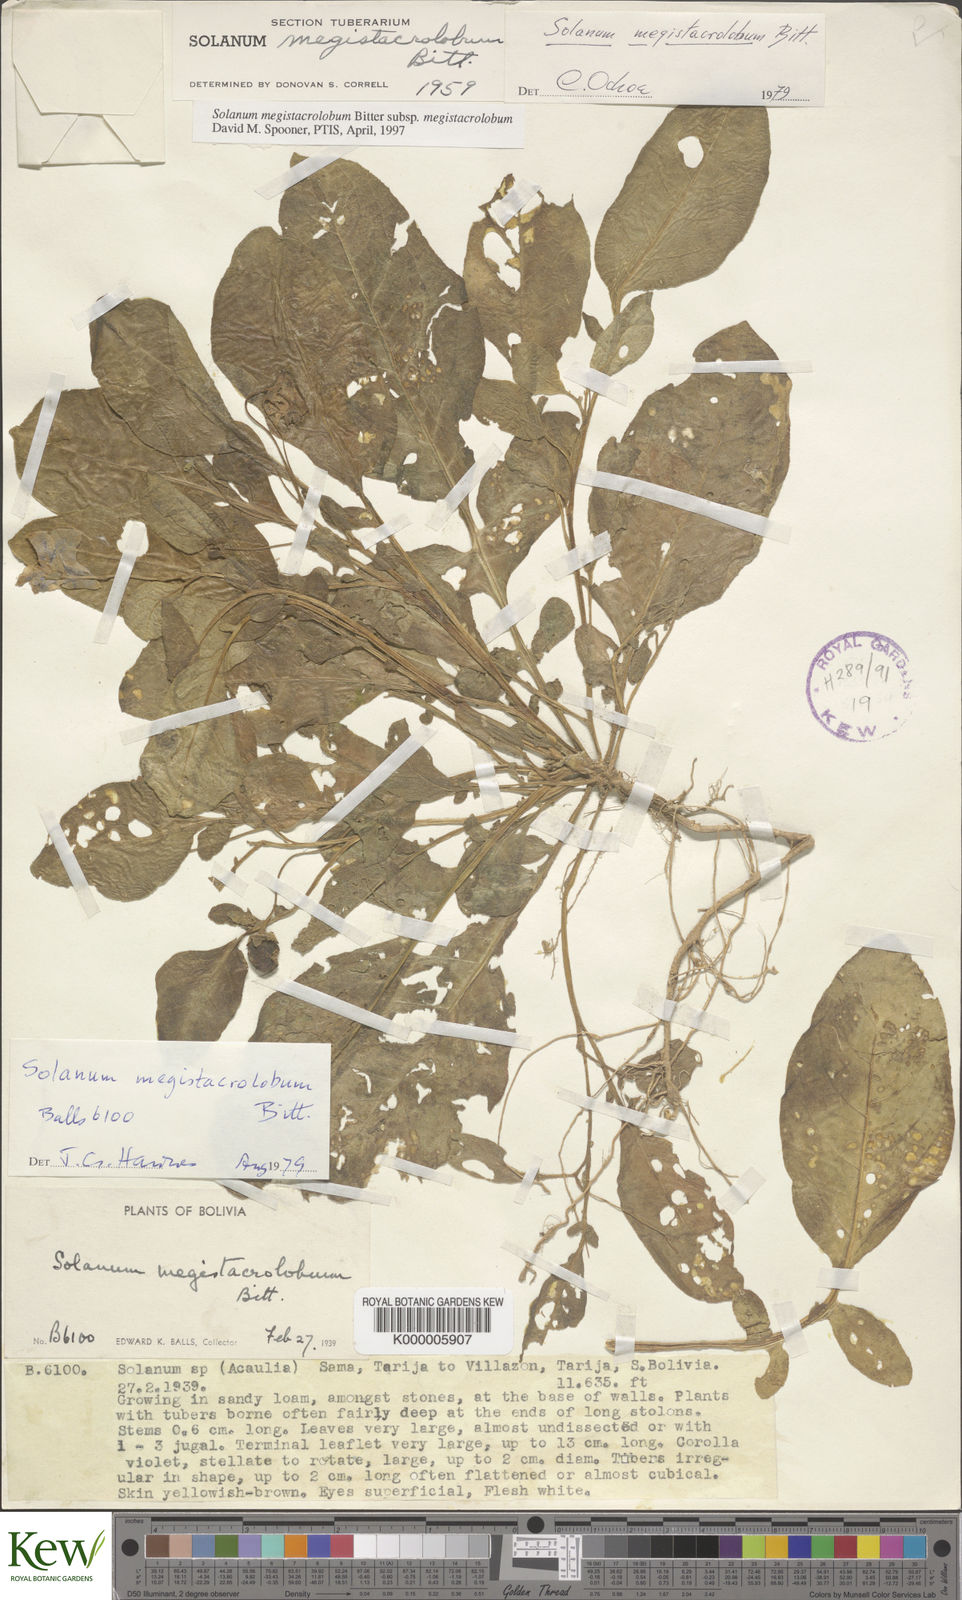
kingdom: Plantae
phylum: Tracheophyta
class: Magnoliopsida
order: Solanales
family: Solanaceae
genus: Solanum
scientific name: Solanum boliviense
